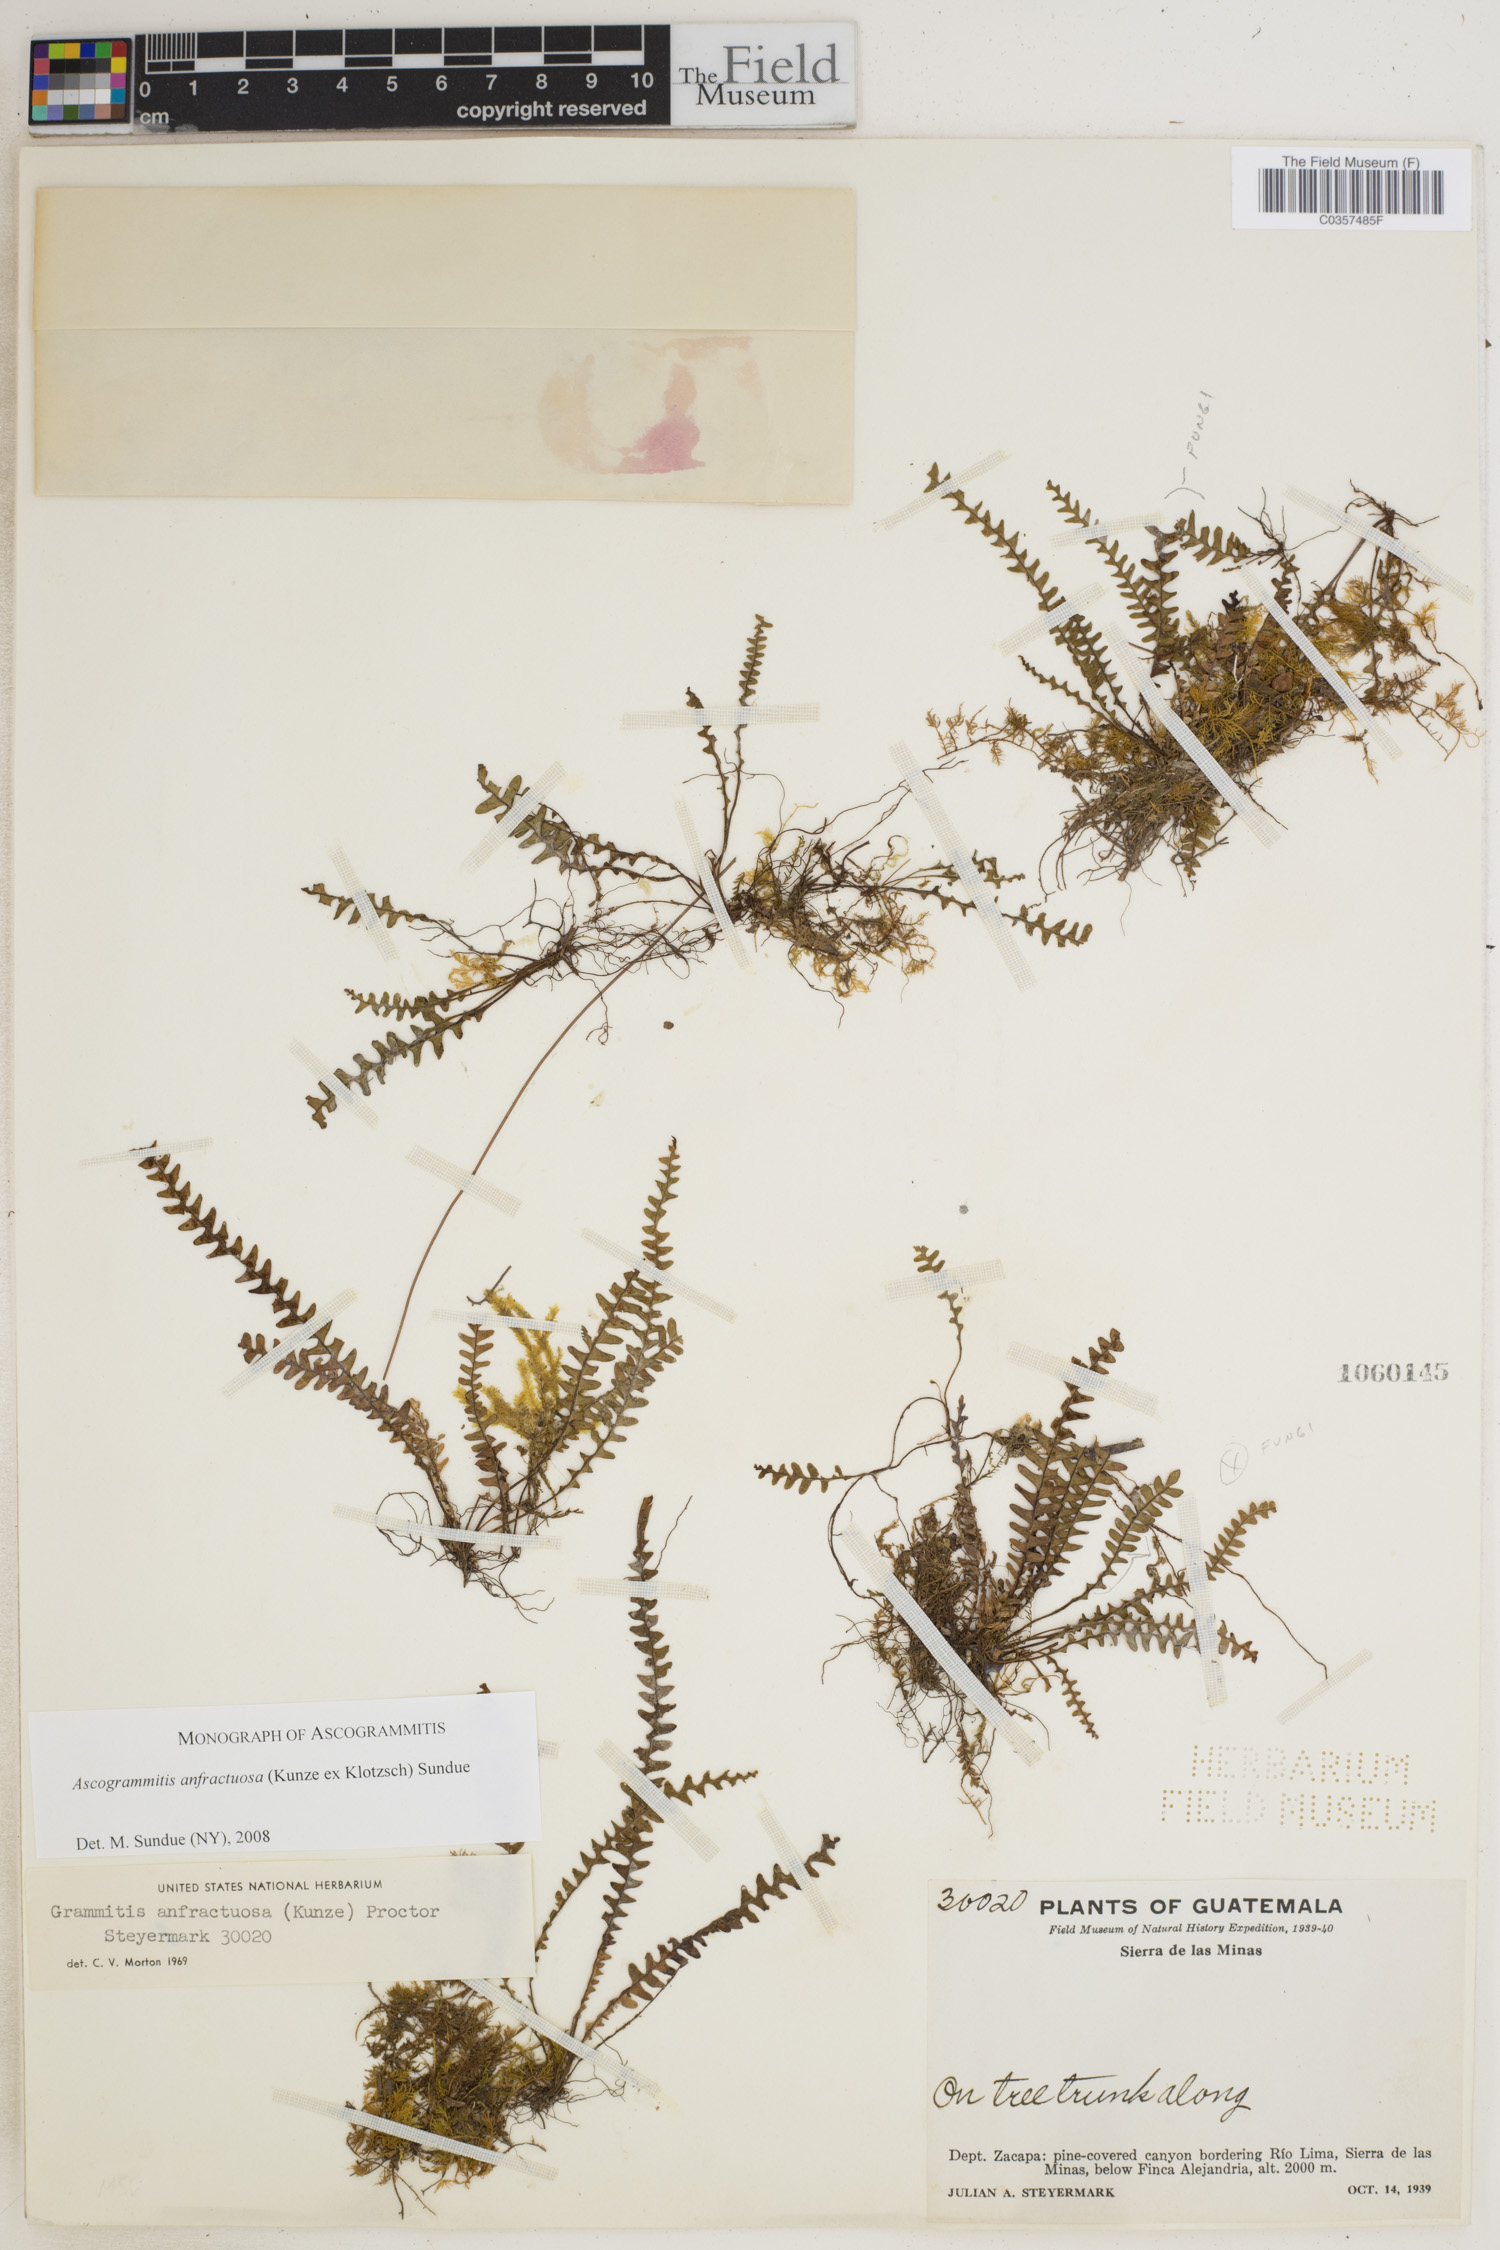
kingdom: Plantae
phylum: Tracheophyta
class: Polypodiopsida
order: Polypodiales
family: Polypodiaceae
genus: Ascogrammitis
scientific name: Ascogrammitis anfractuosa
